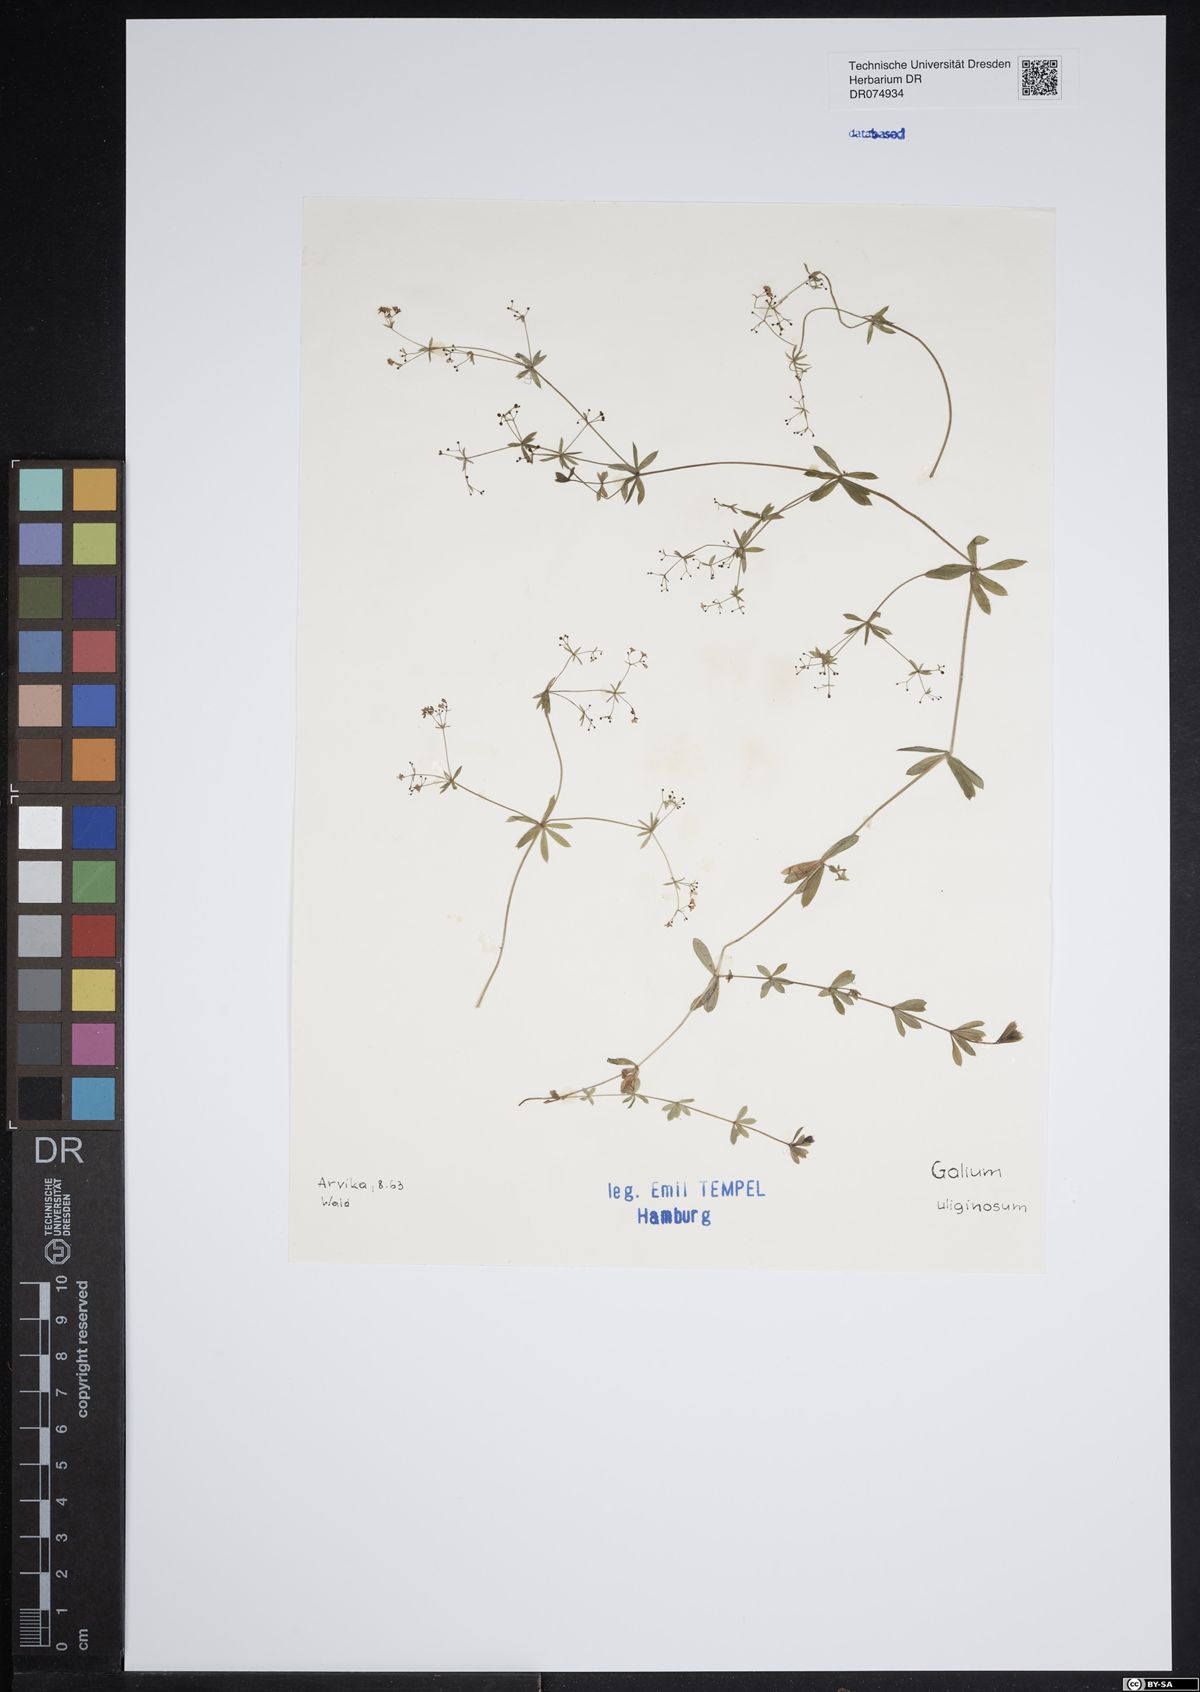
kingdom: Plantae
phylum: Tracheophyta
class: Magnoliopsida
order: Gentianales
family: Rubiaceae
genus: Galium
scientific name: Galium uliginosum
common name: Fen bedstraw
